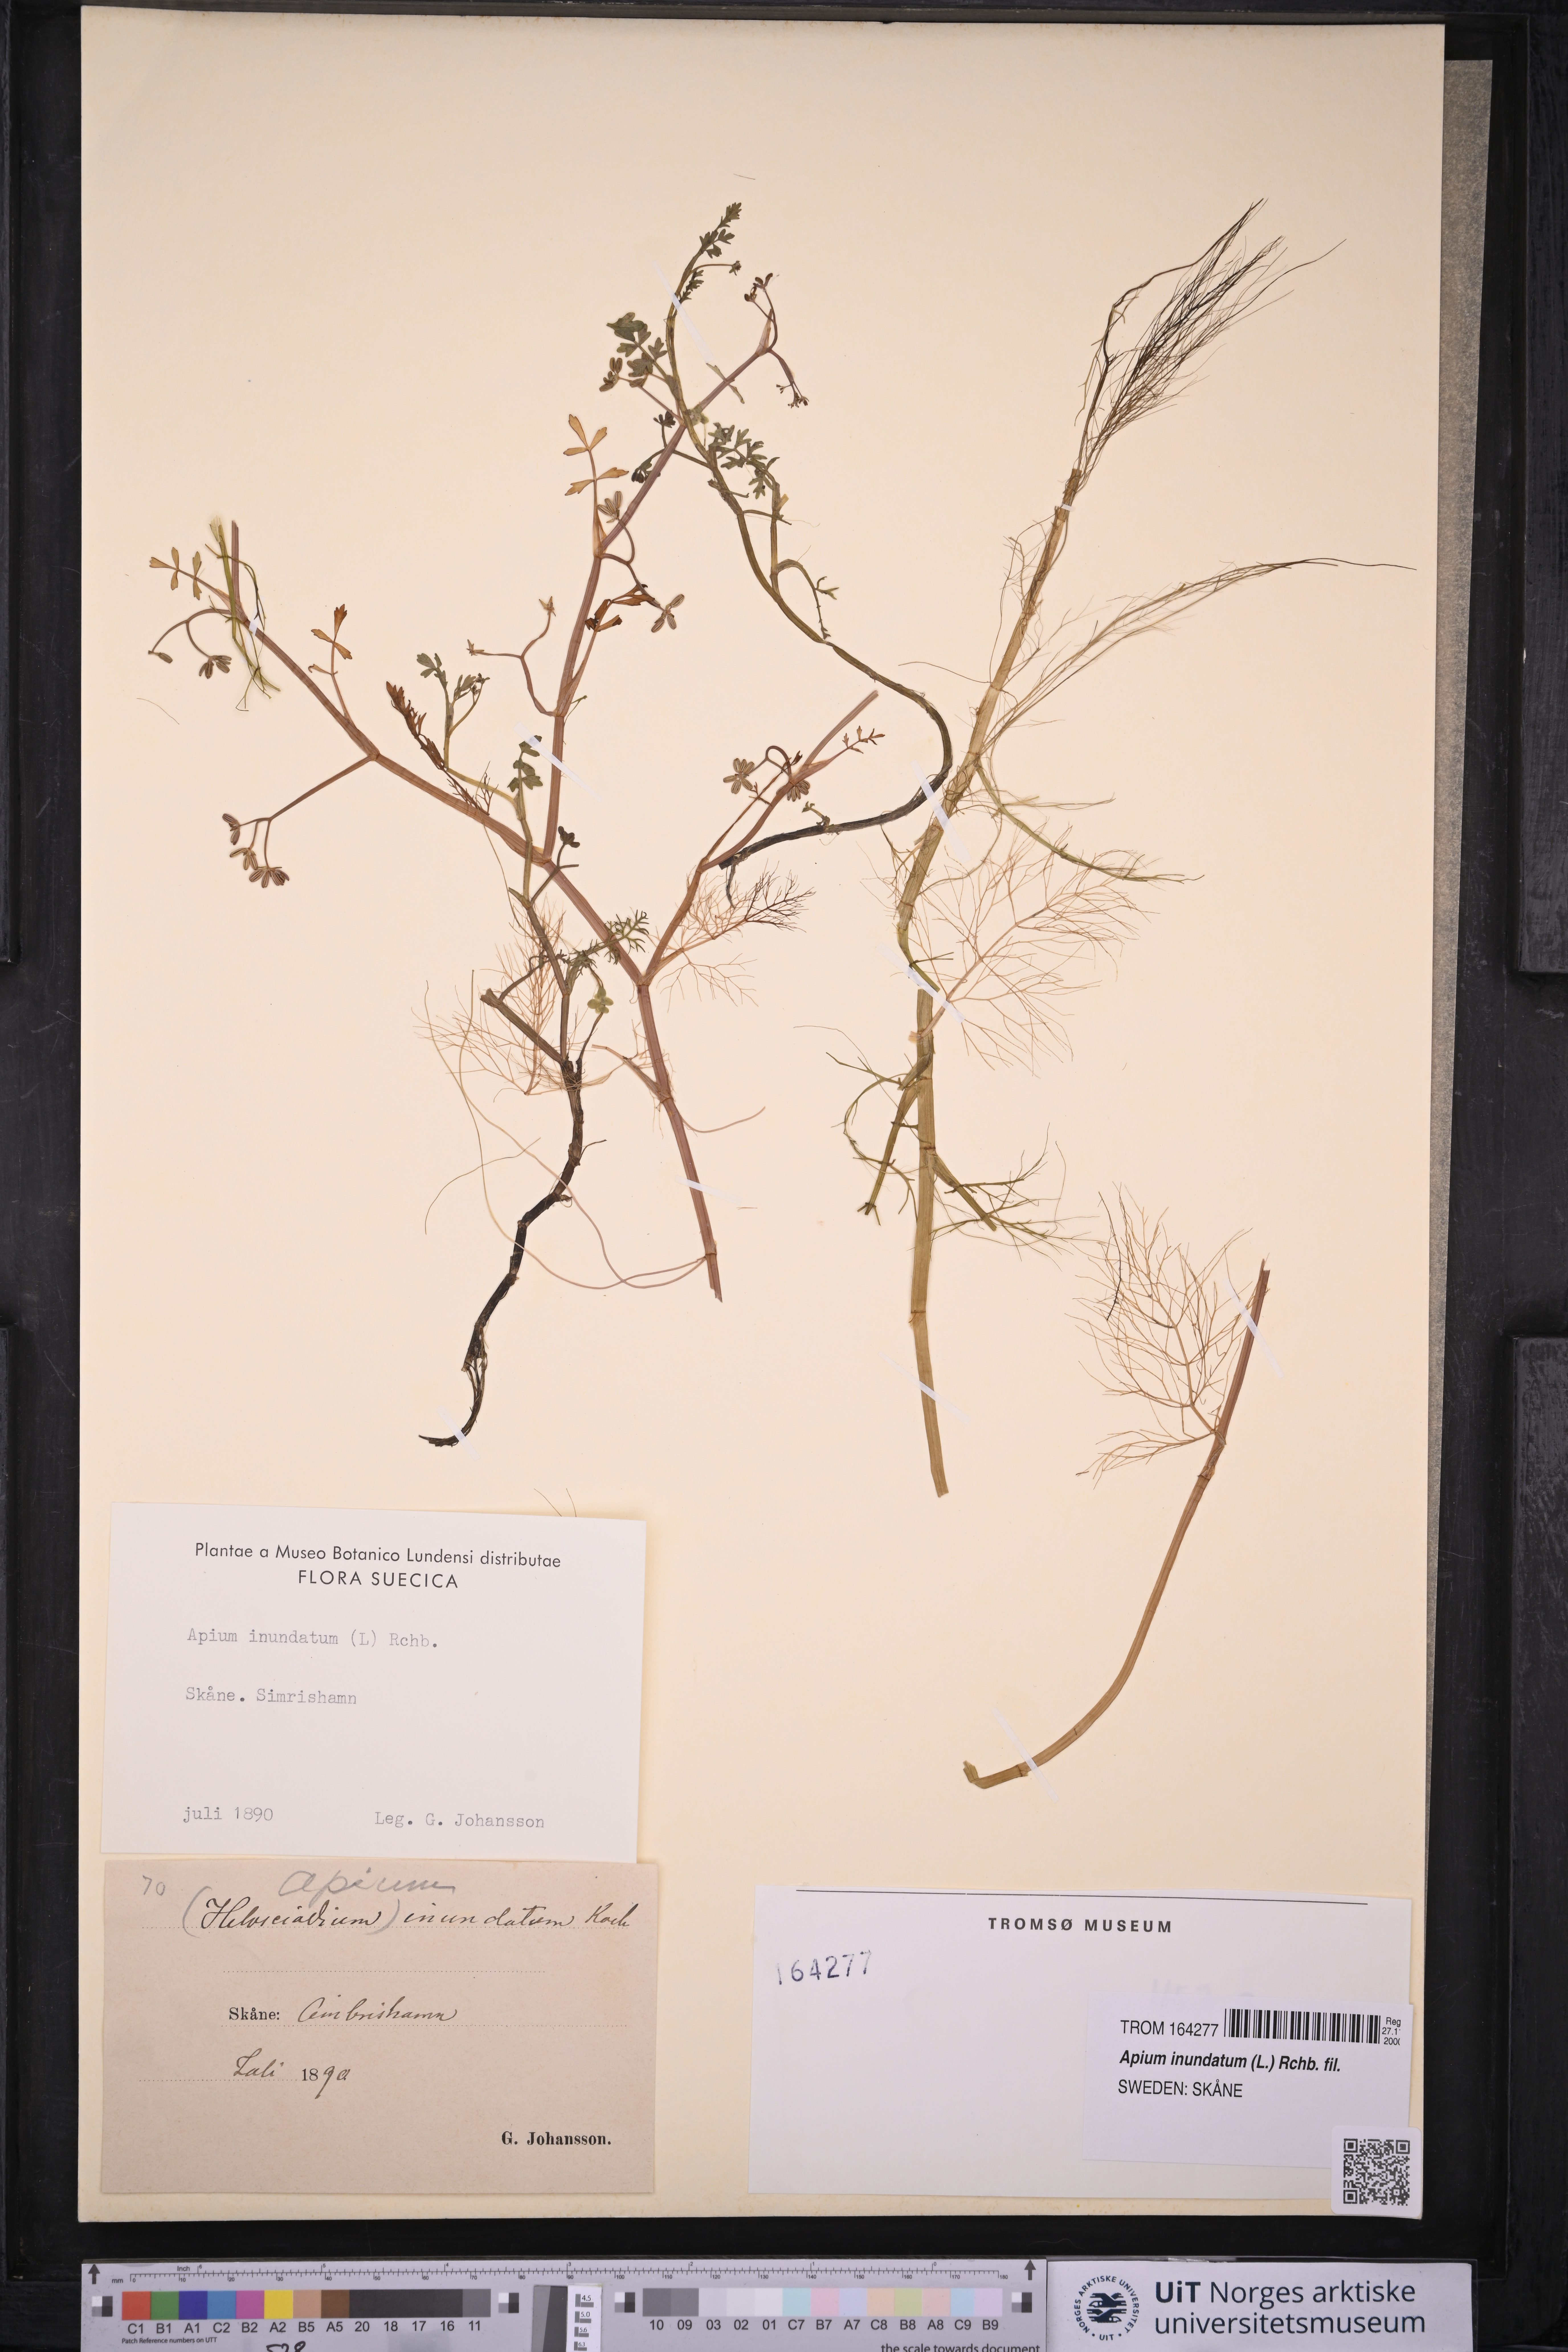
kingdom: Plantae
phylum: Tracheophyta
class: Magnoliopsida
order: Apiales
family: Apiaceae
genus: Helosciadium
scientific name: Helosciadium inundatum
